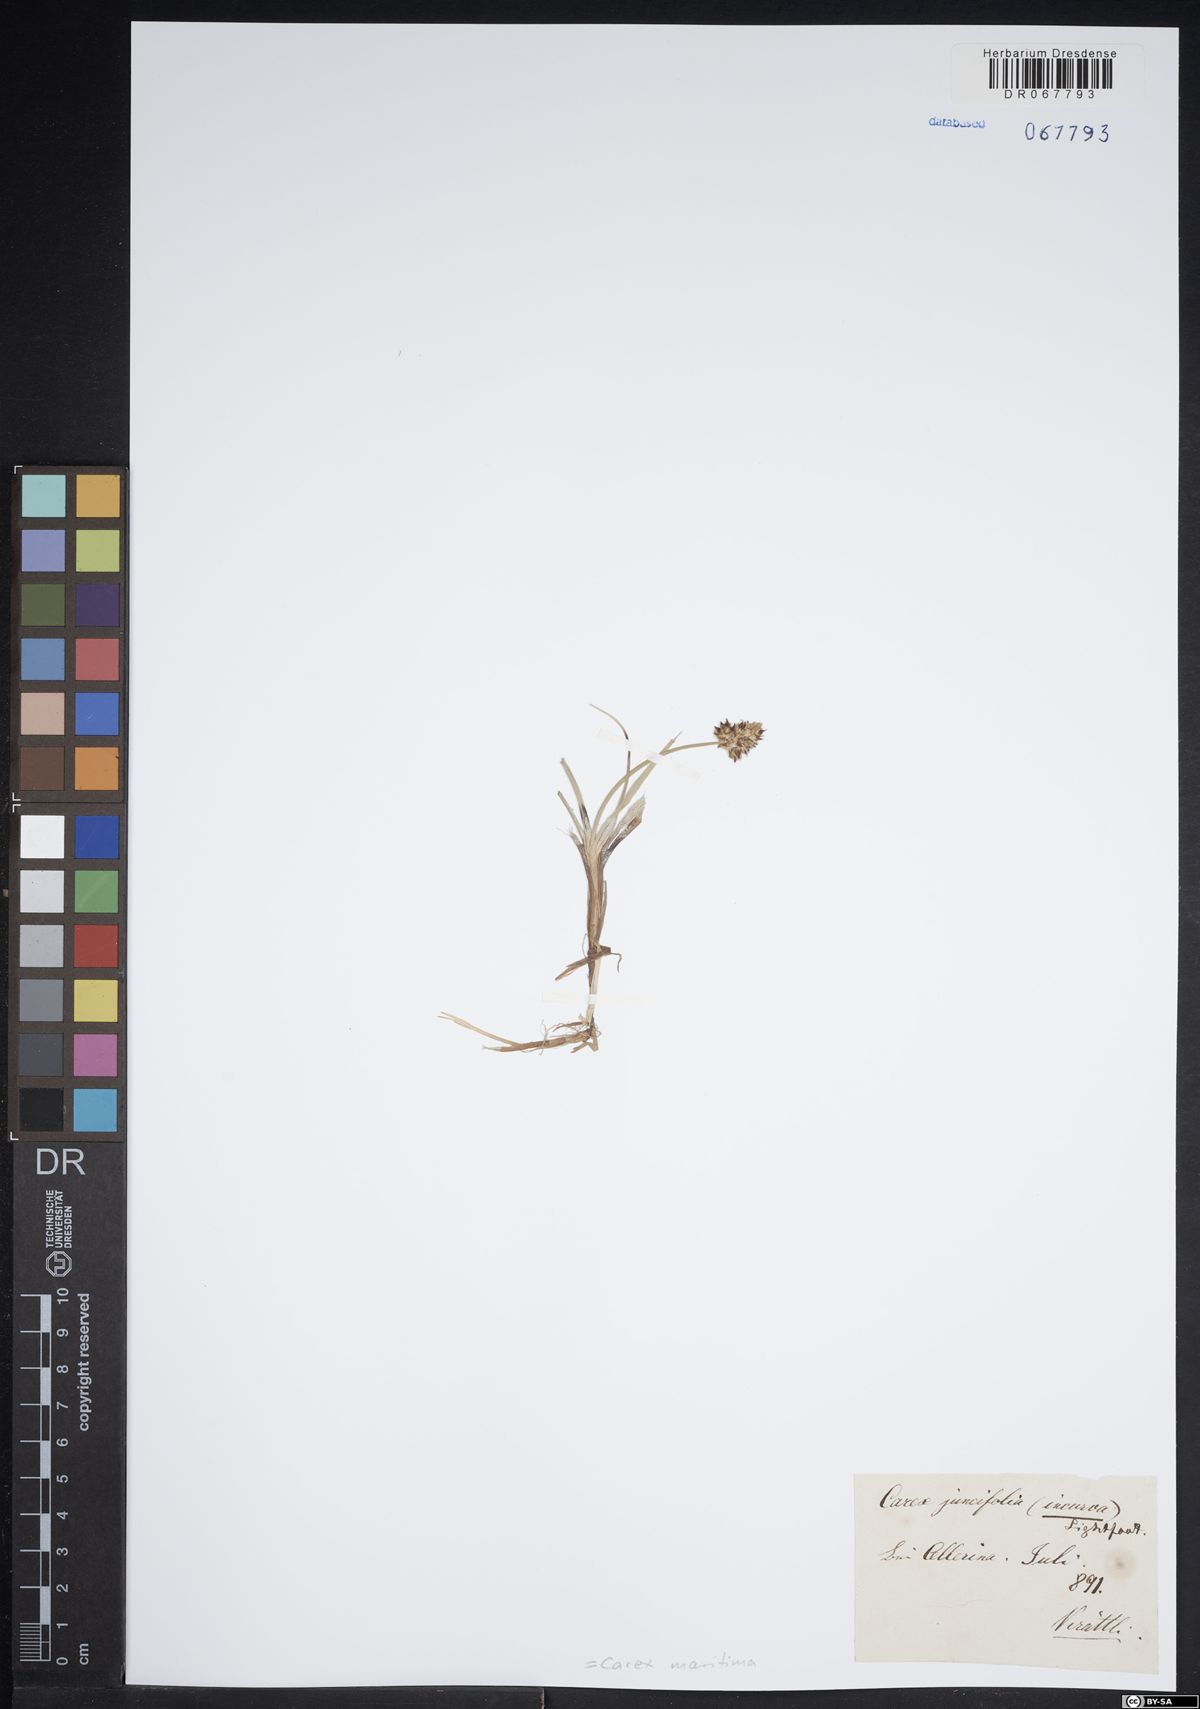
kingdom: Plantae
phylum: Tracheophyta
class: Liliopsida
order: Poales
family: Cyperaceae
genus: Carex
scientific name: Carex maritima
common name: Curved sedge
